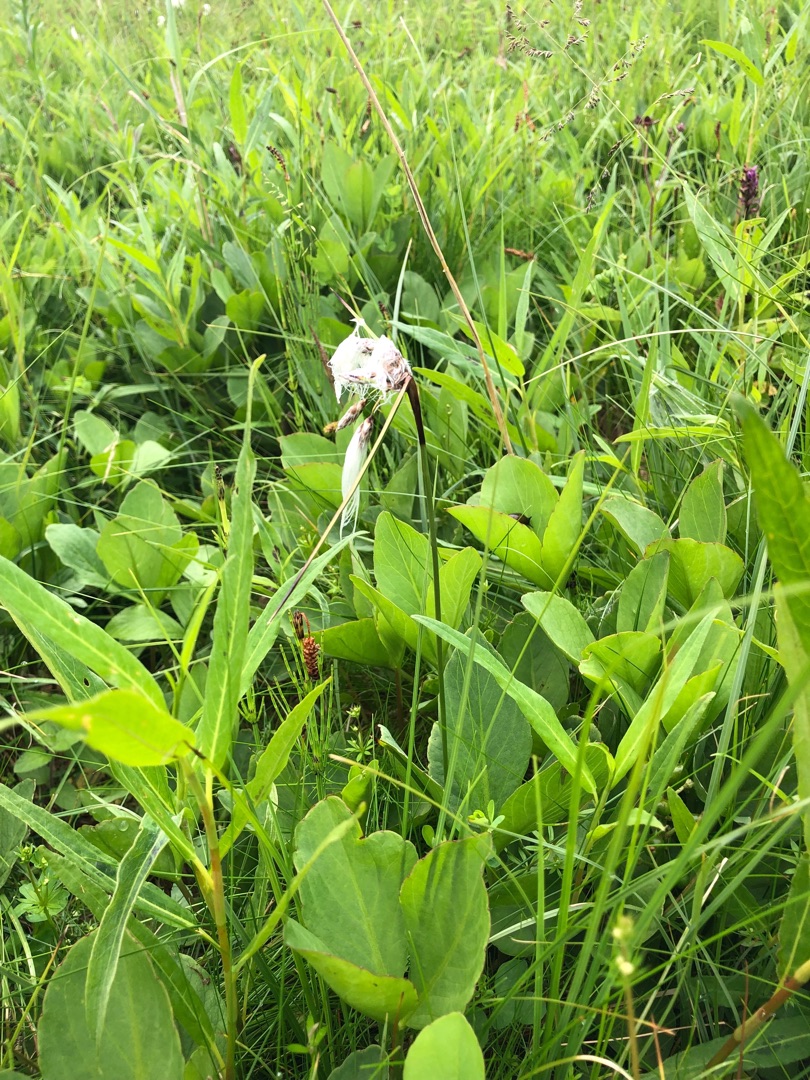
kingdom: Plantae
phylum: Tracheophyta
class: Liliopsida
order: Poales
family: Cyperaceae
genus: Eriophorum
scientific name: Eriophorum angustifolium
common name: Smalbladet kæruld
